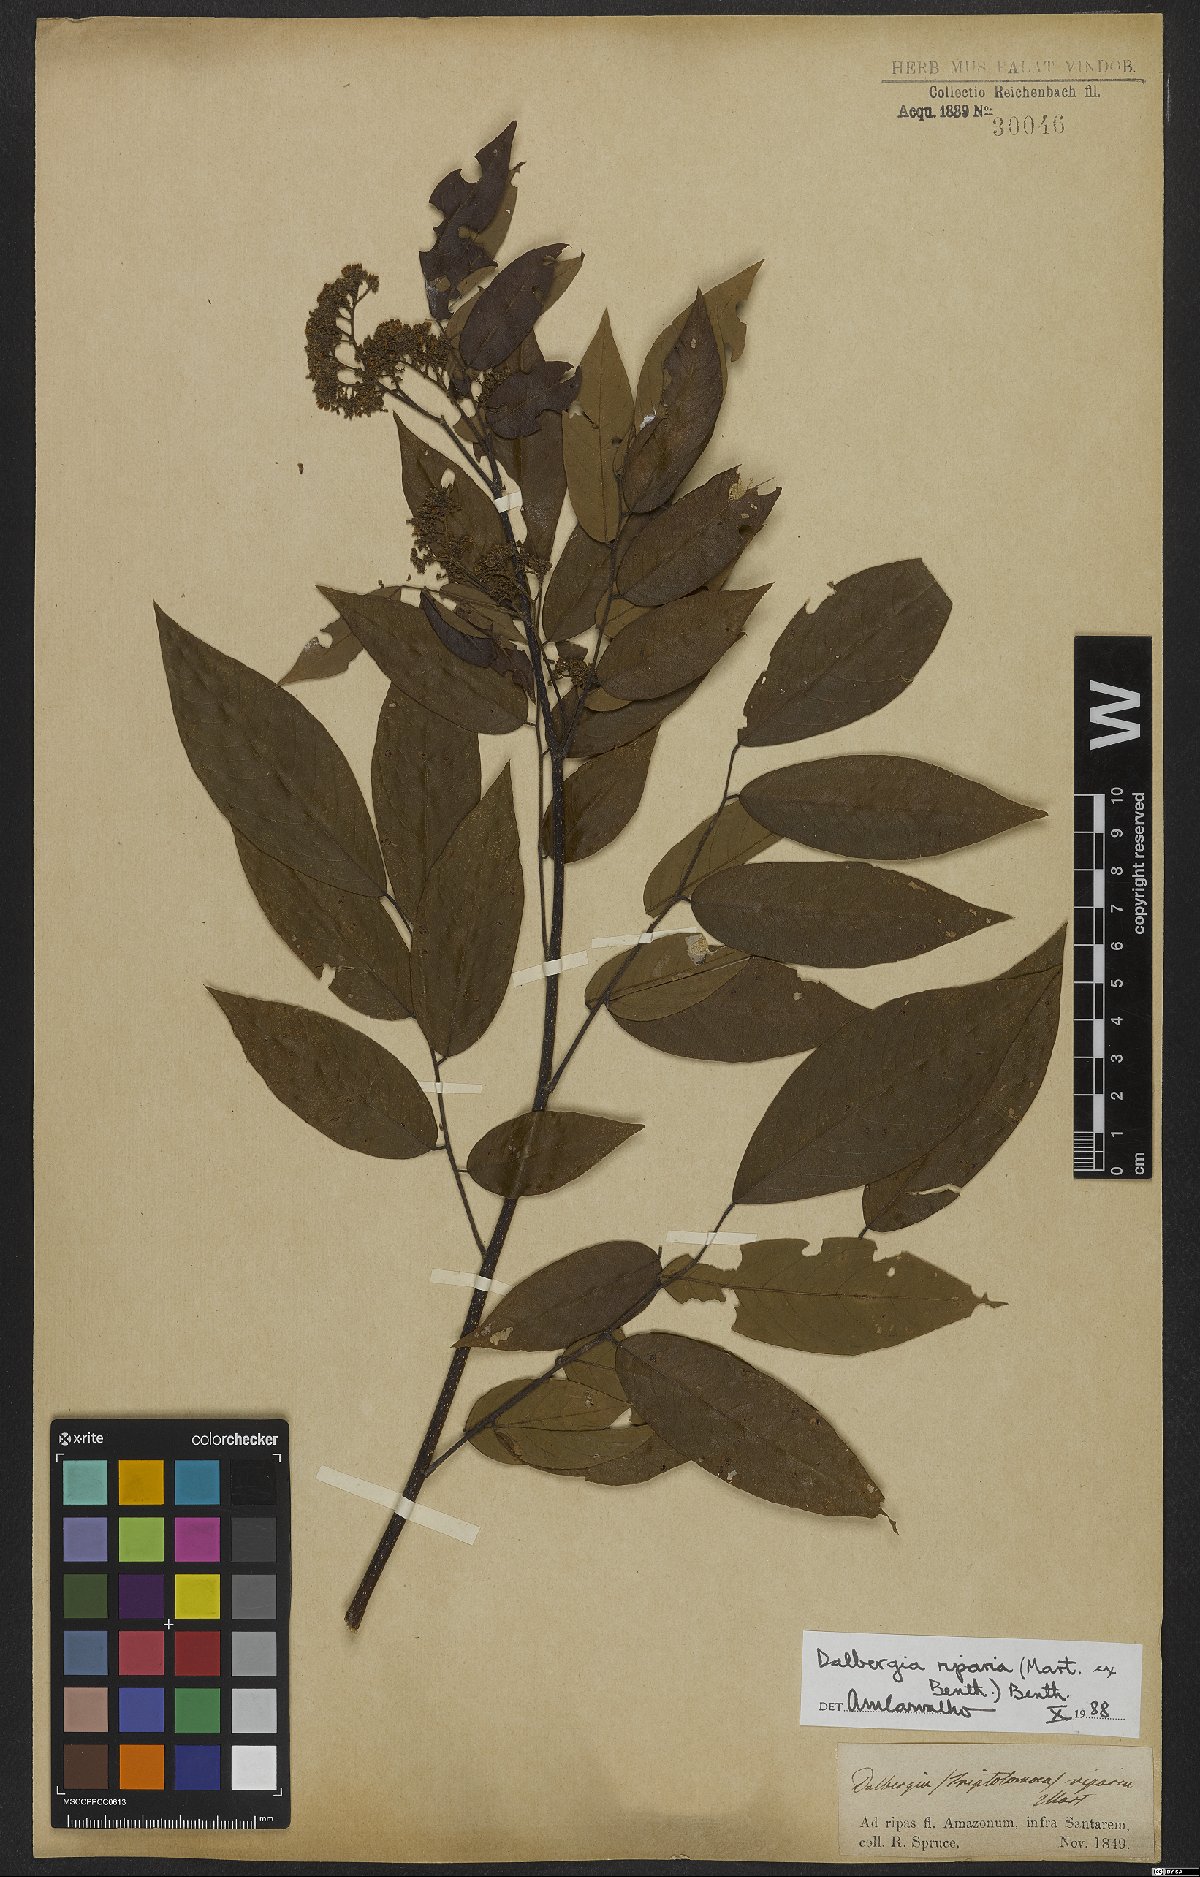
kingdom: Plantae
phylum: Tracheophyta
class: Magnoliopsida
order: Fabales
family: Fabaceae
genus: Dalbergia
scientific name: Dalbergia riparia
